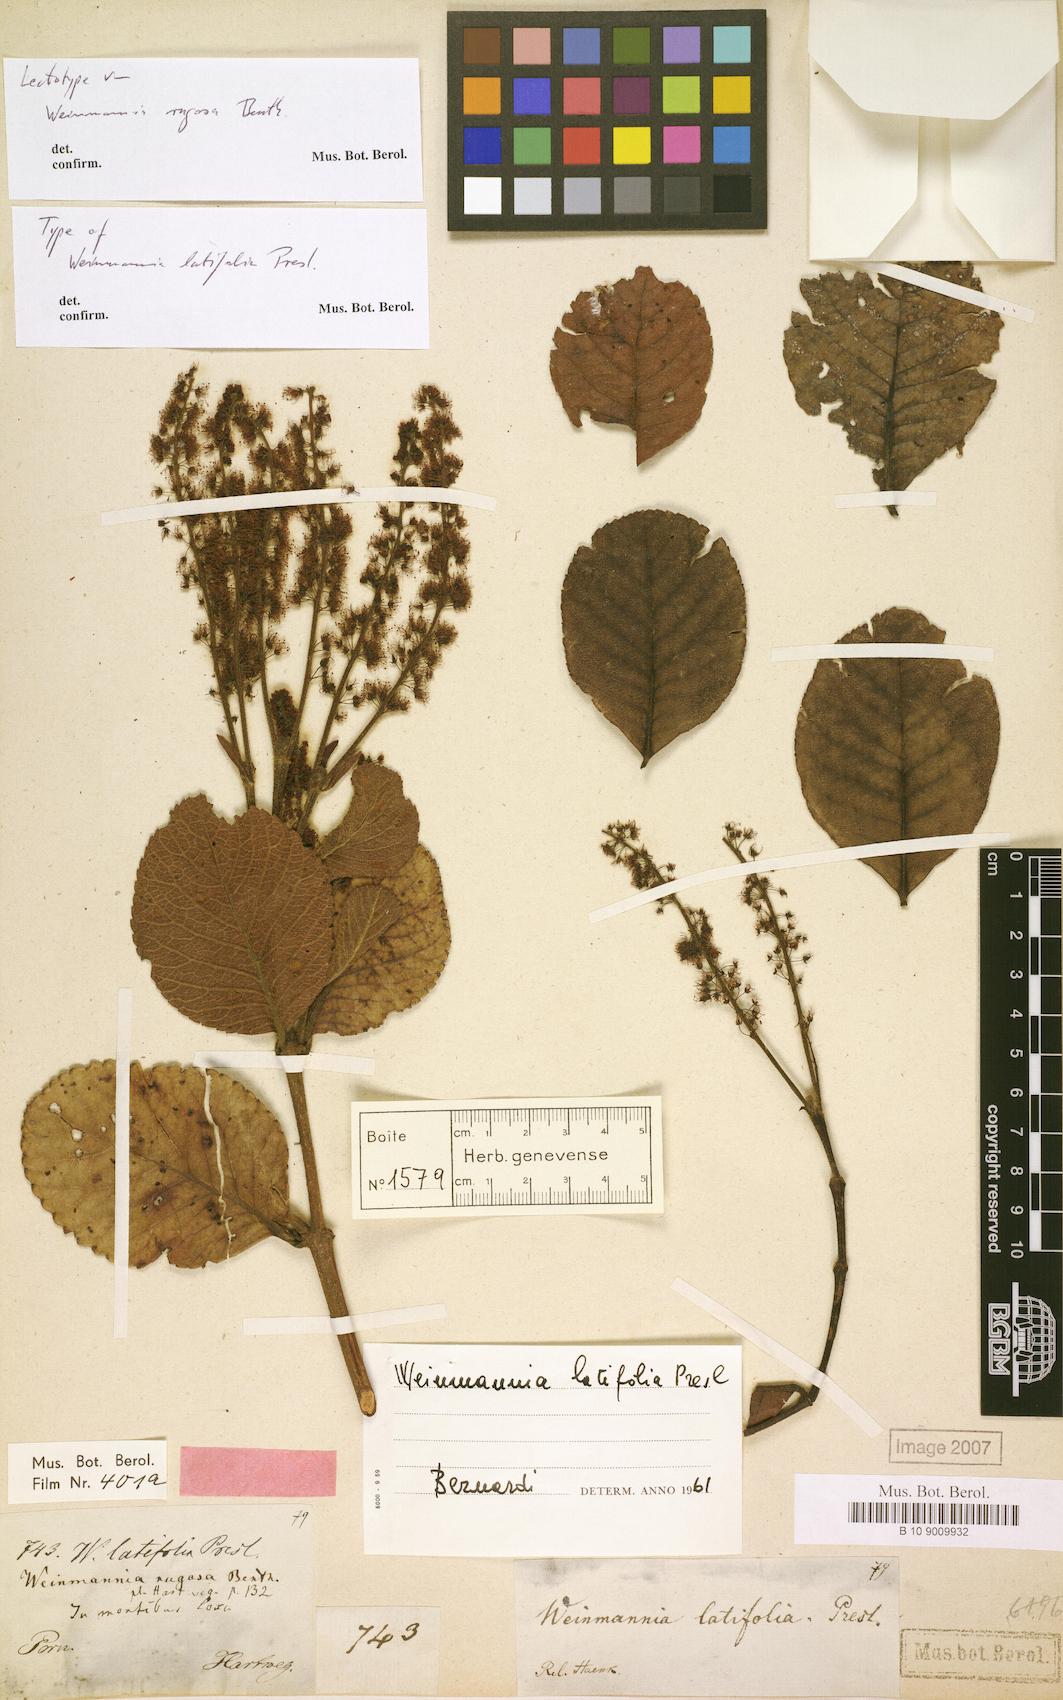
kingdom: Plantae
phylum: Tracheophyta
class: Magnoliopsida
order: Oxalidales
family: Cunoniaceae
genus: Weinmannia
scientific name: Weinmannia latifolia
